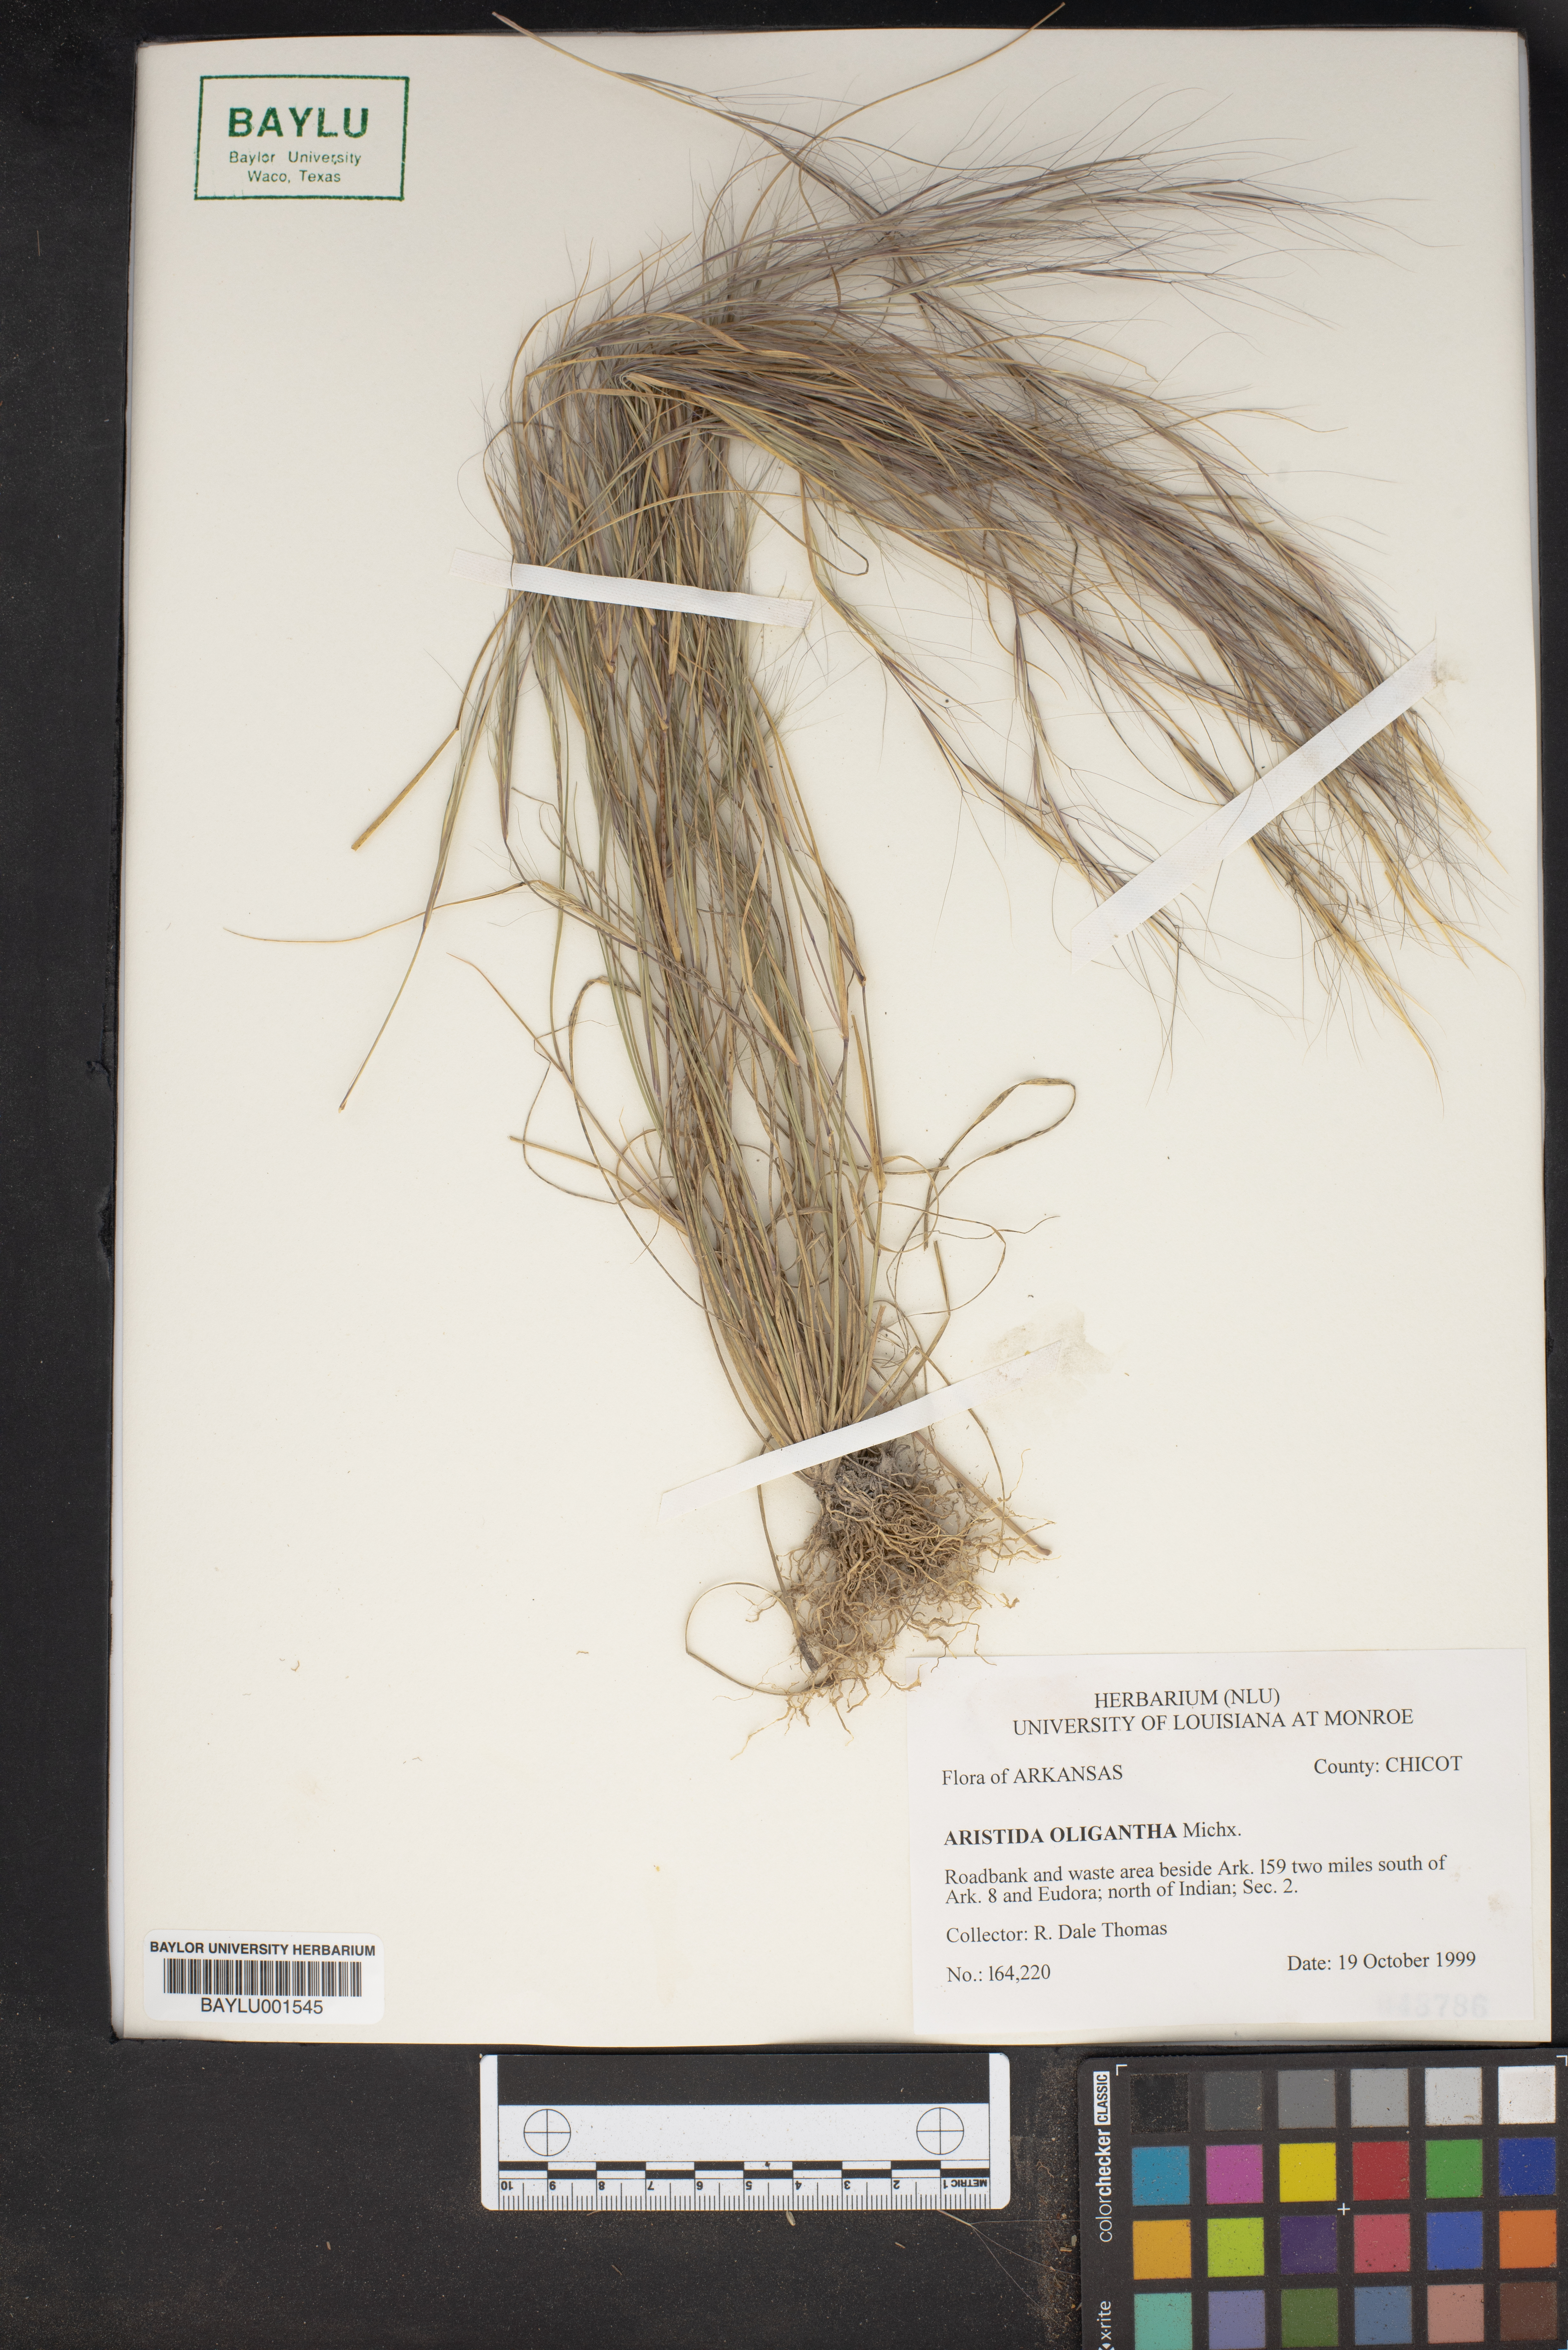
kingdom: Plantae
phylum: Tracheophyta
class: Liliopsida
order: Poales
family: Poaceae
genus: Aristida
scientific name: Aristida oligantha
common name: Few-flowered aristida
